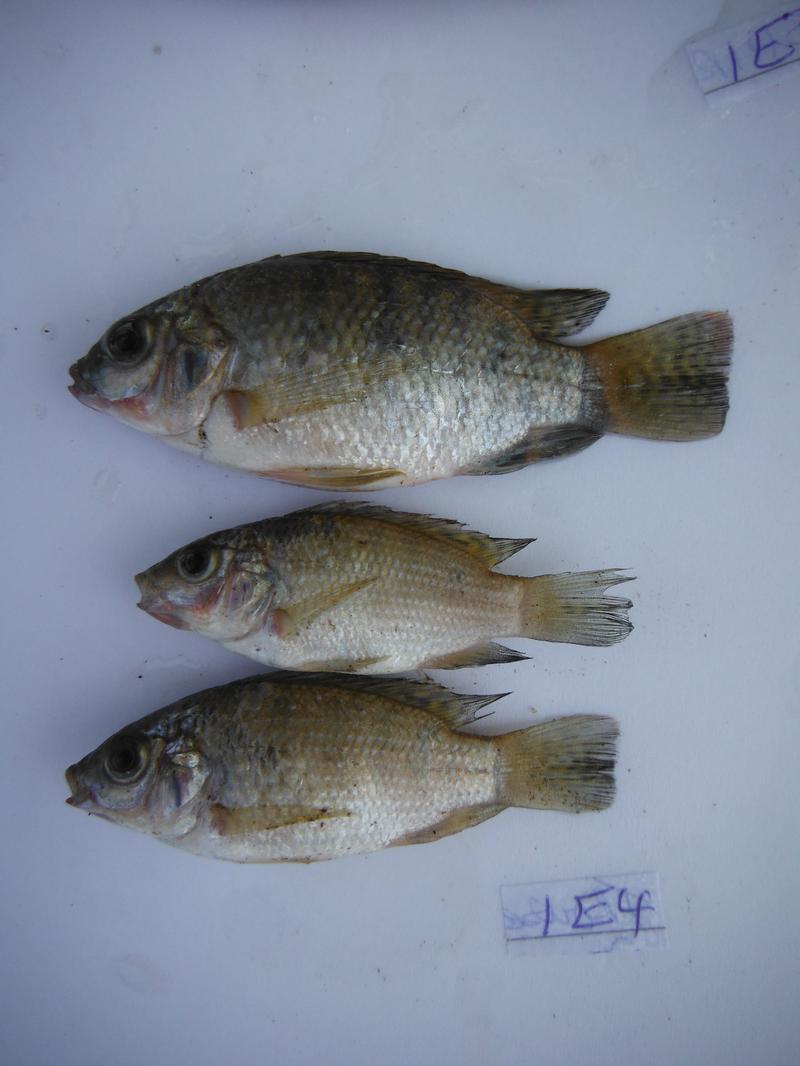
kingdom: Animalia
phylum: Chordata
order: Perciformes
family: Cichlidae
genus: Oreochromis
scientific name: Oreochromis urolepis
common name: Wami tilapia
